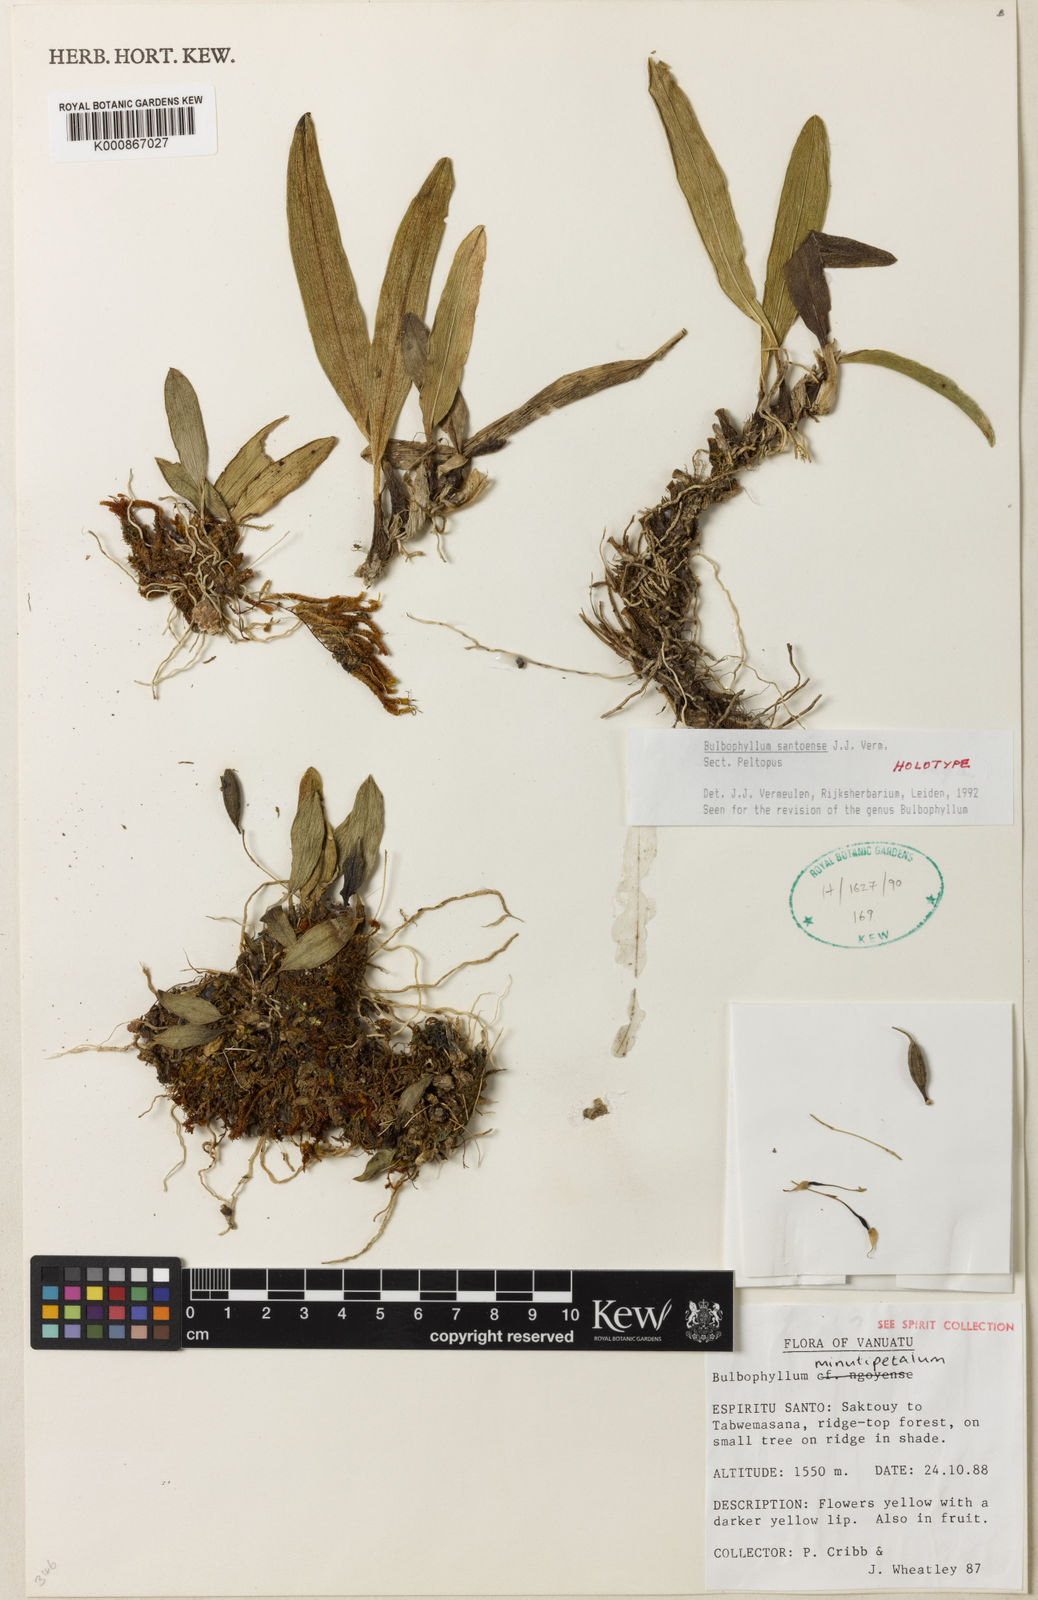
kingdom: Plantae
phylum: Tracheophyta
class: Liliopsida
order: Asparagales
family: Orchidaceae
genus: Bulbophyllum
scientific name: Bulbophyllum
